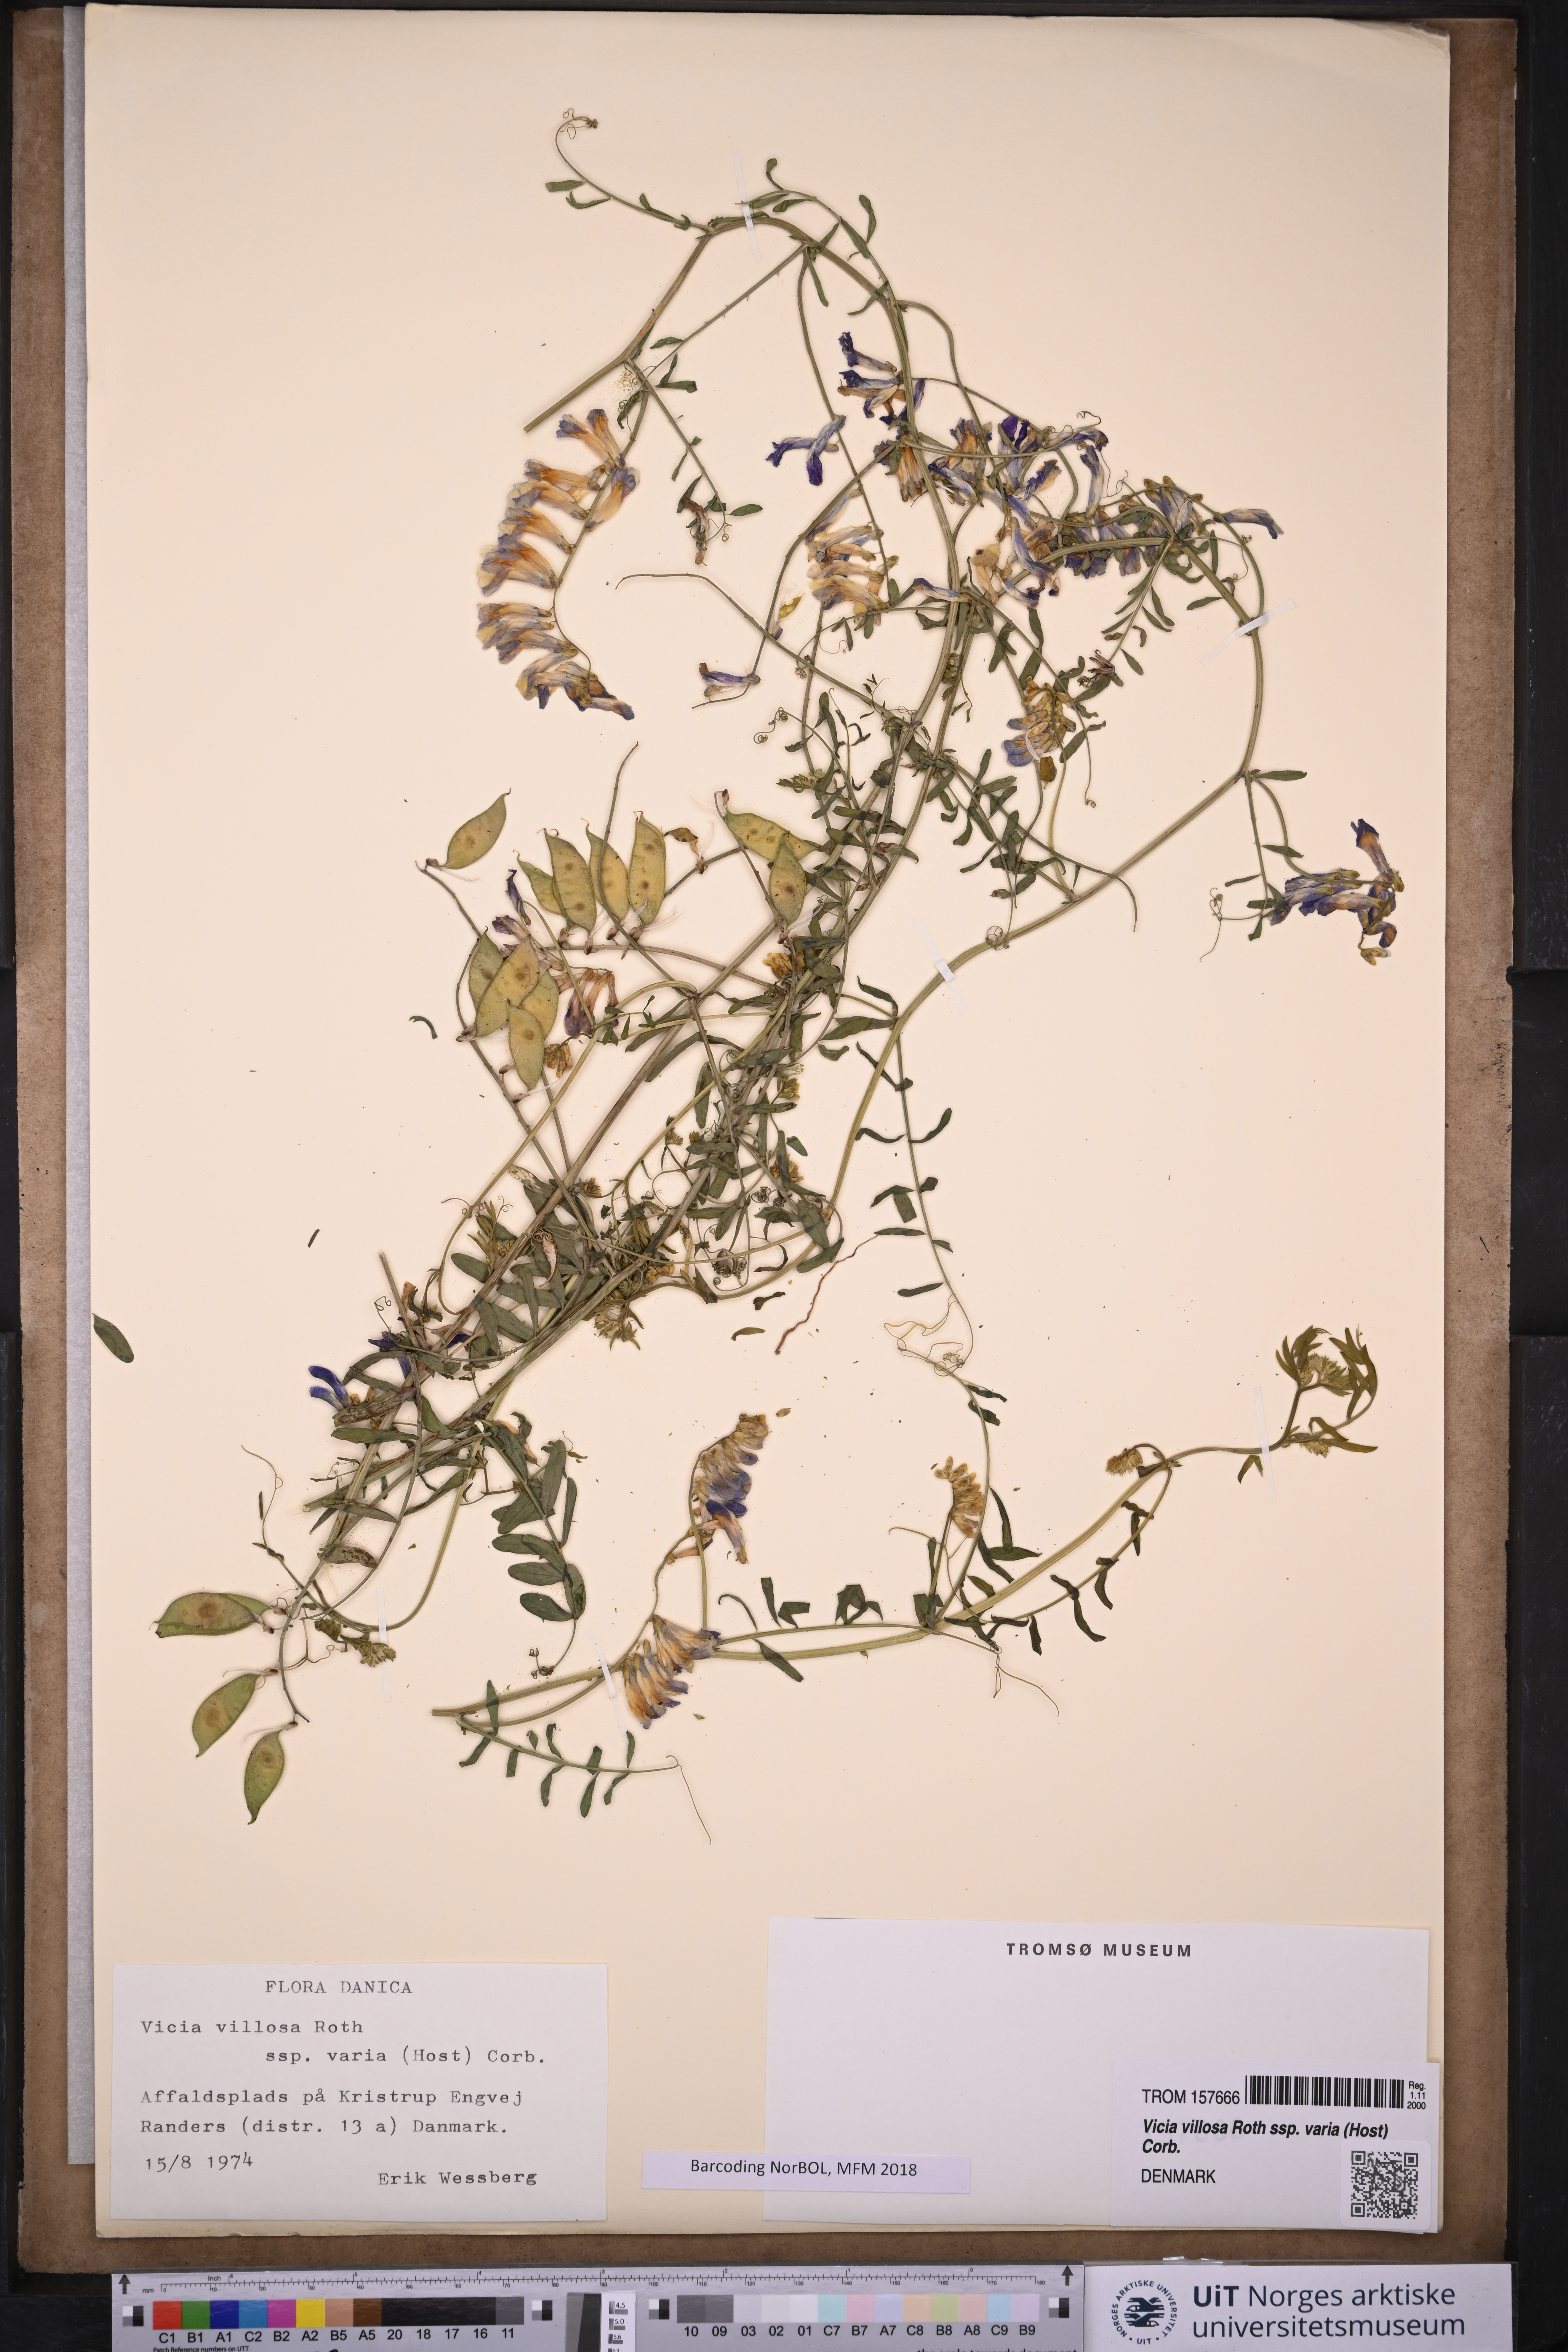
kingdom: Plantae
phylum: Tracheophyta
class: Magnoliopsida
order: Fabales
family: Fabaceae
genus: Vicia
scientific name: Vicia villosa
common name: Fodder vetch
